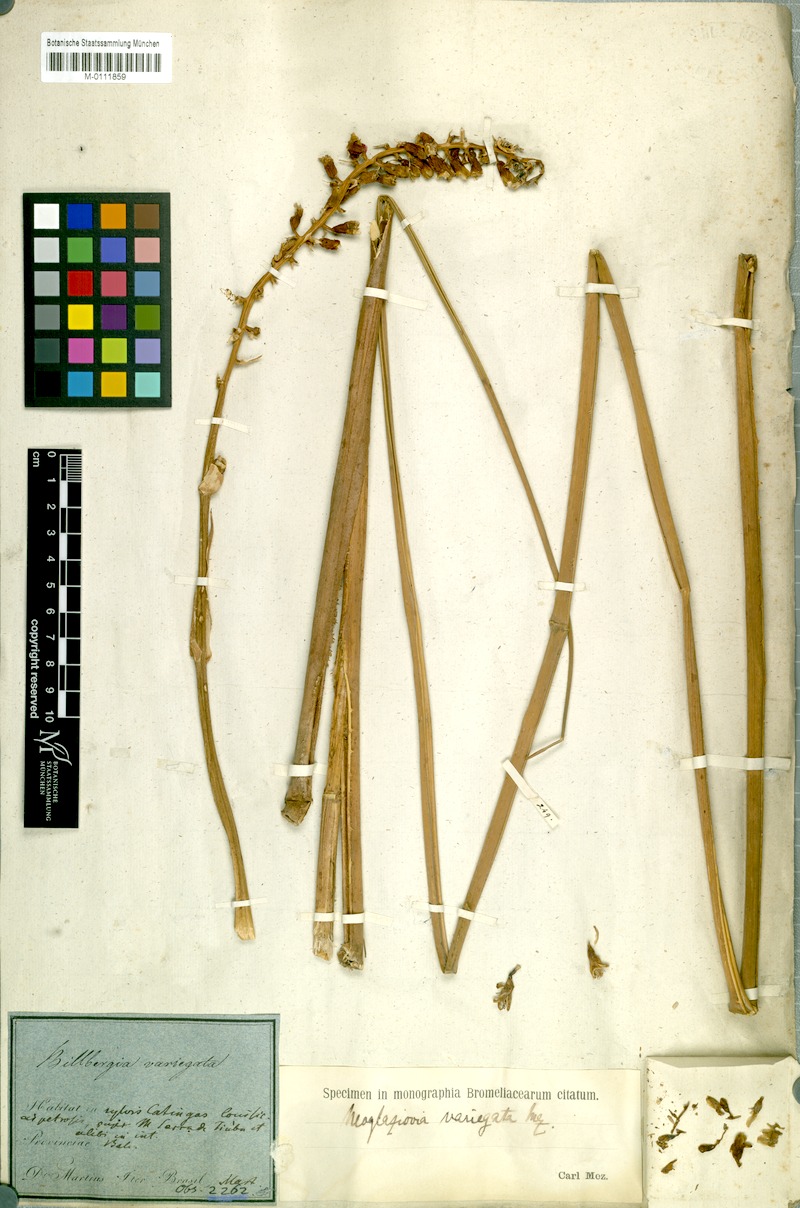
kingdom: Plantae
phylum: Tracheophyta
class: Liliopsida
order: Poales
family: Bromeliaceae
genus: Neoglaziovia
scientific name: Neoglaziovia variegata
